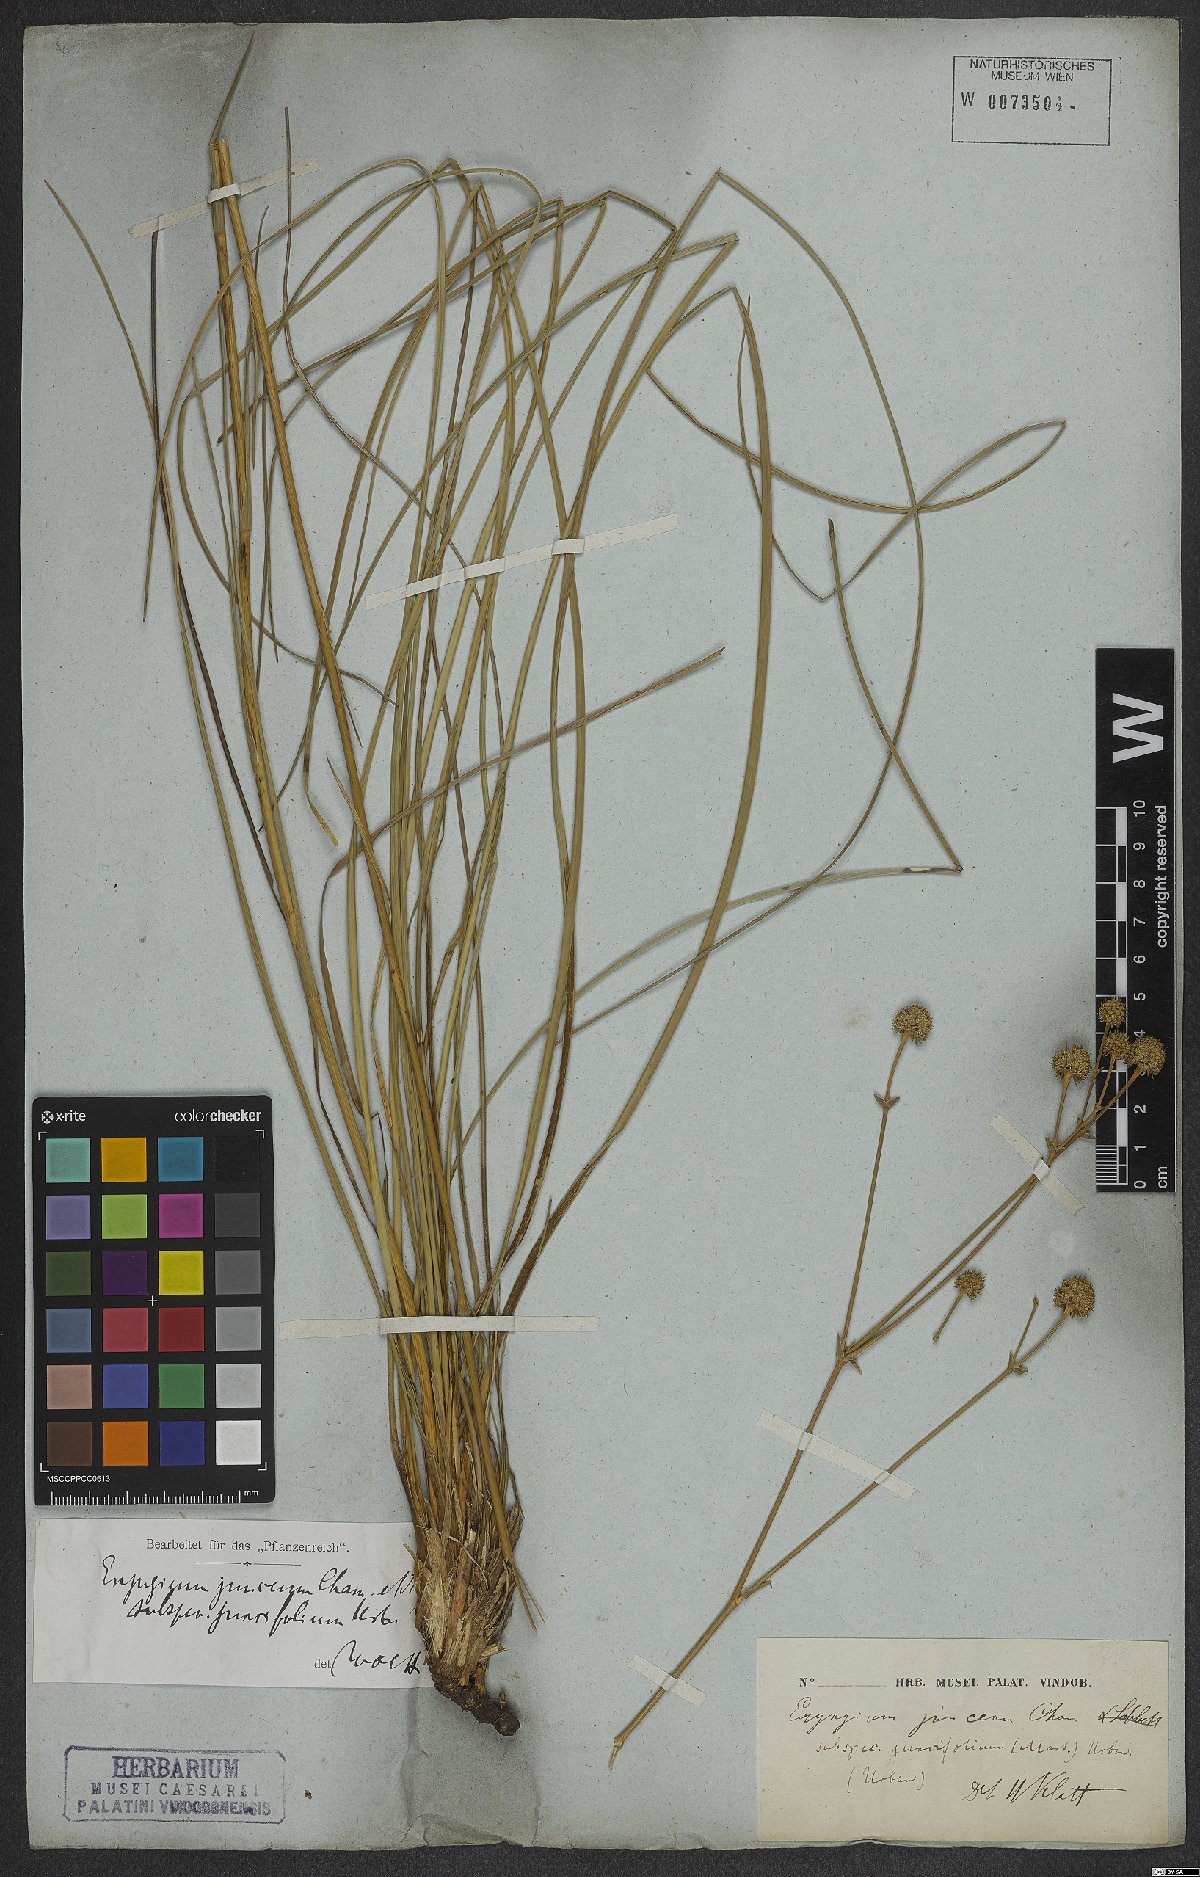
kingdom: Plantae
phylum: Tracheophyta
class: Magnoliopsida
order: Apiales
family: Apiaceae
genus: Eryngium
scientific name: Eryngium juncifolium
